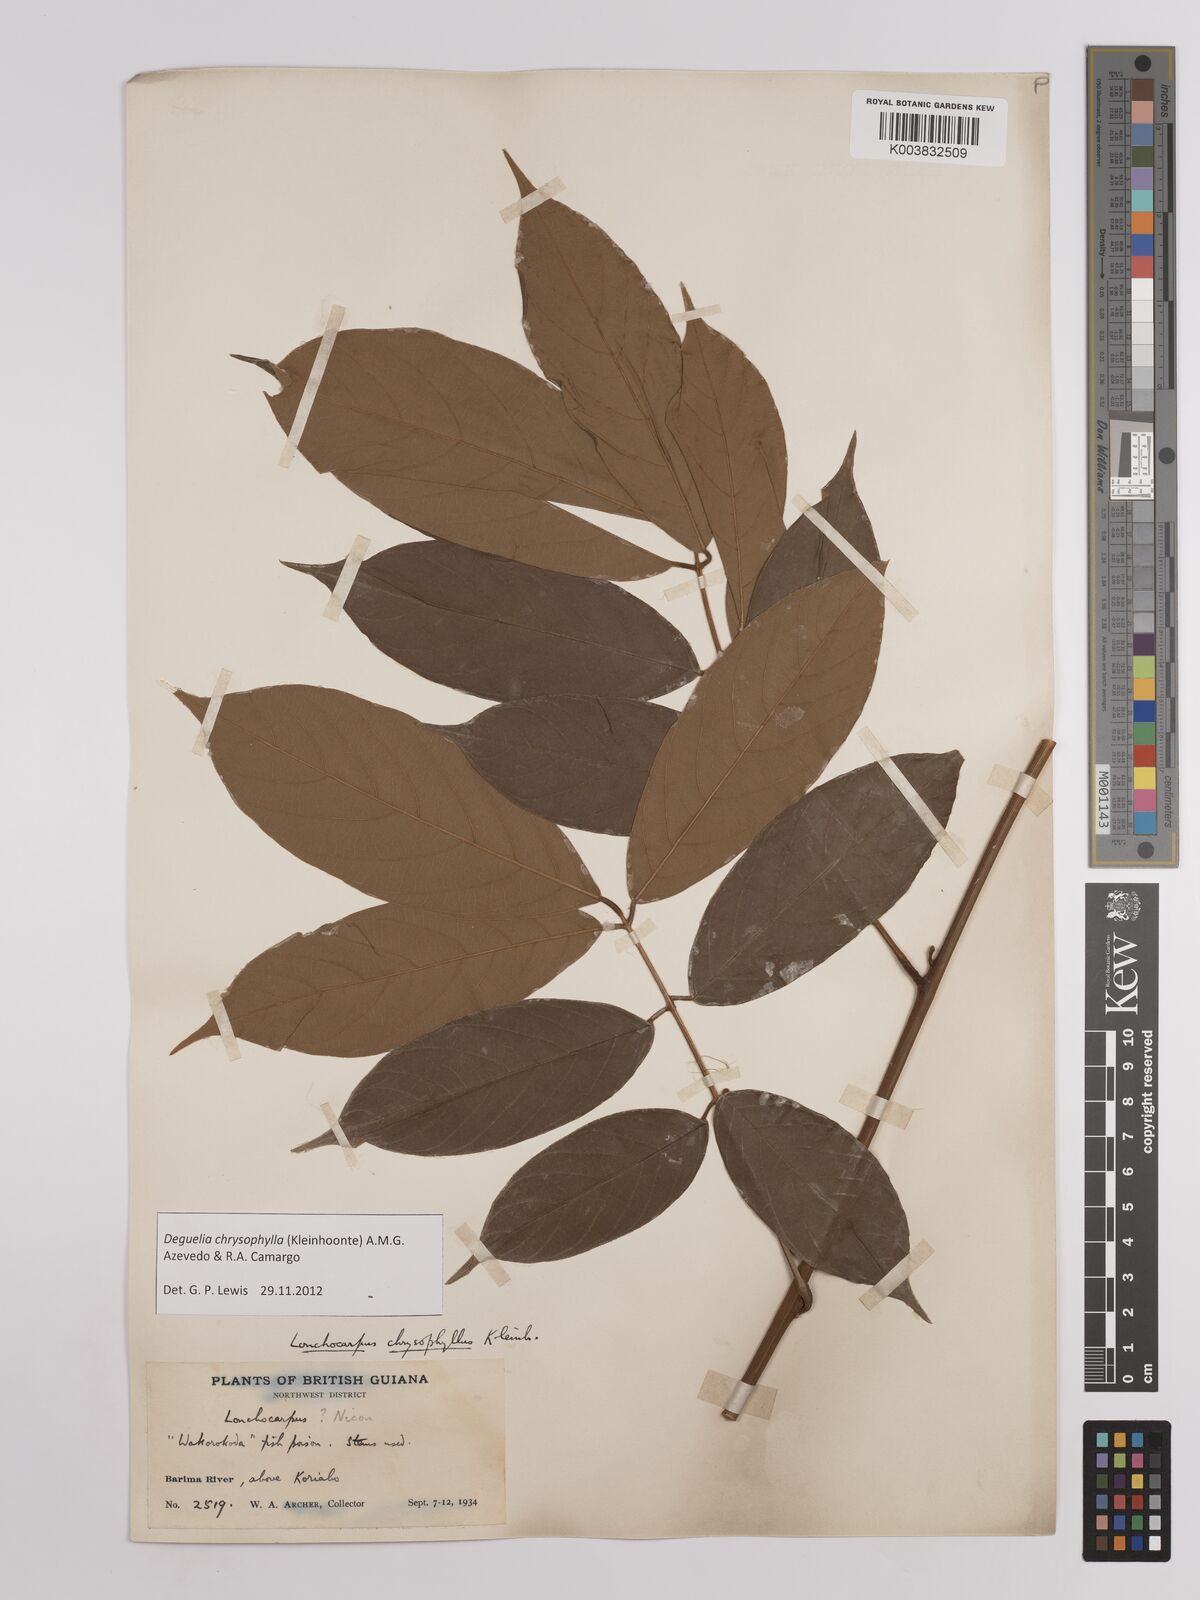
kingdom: Plantae
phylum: Tracheophyta
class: Magnoliopsida
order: Fabales
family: Fabaceae
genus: Deguelia
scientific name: Deguelia chrysophylla
